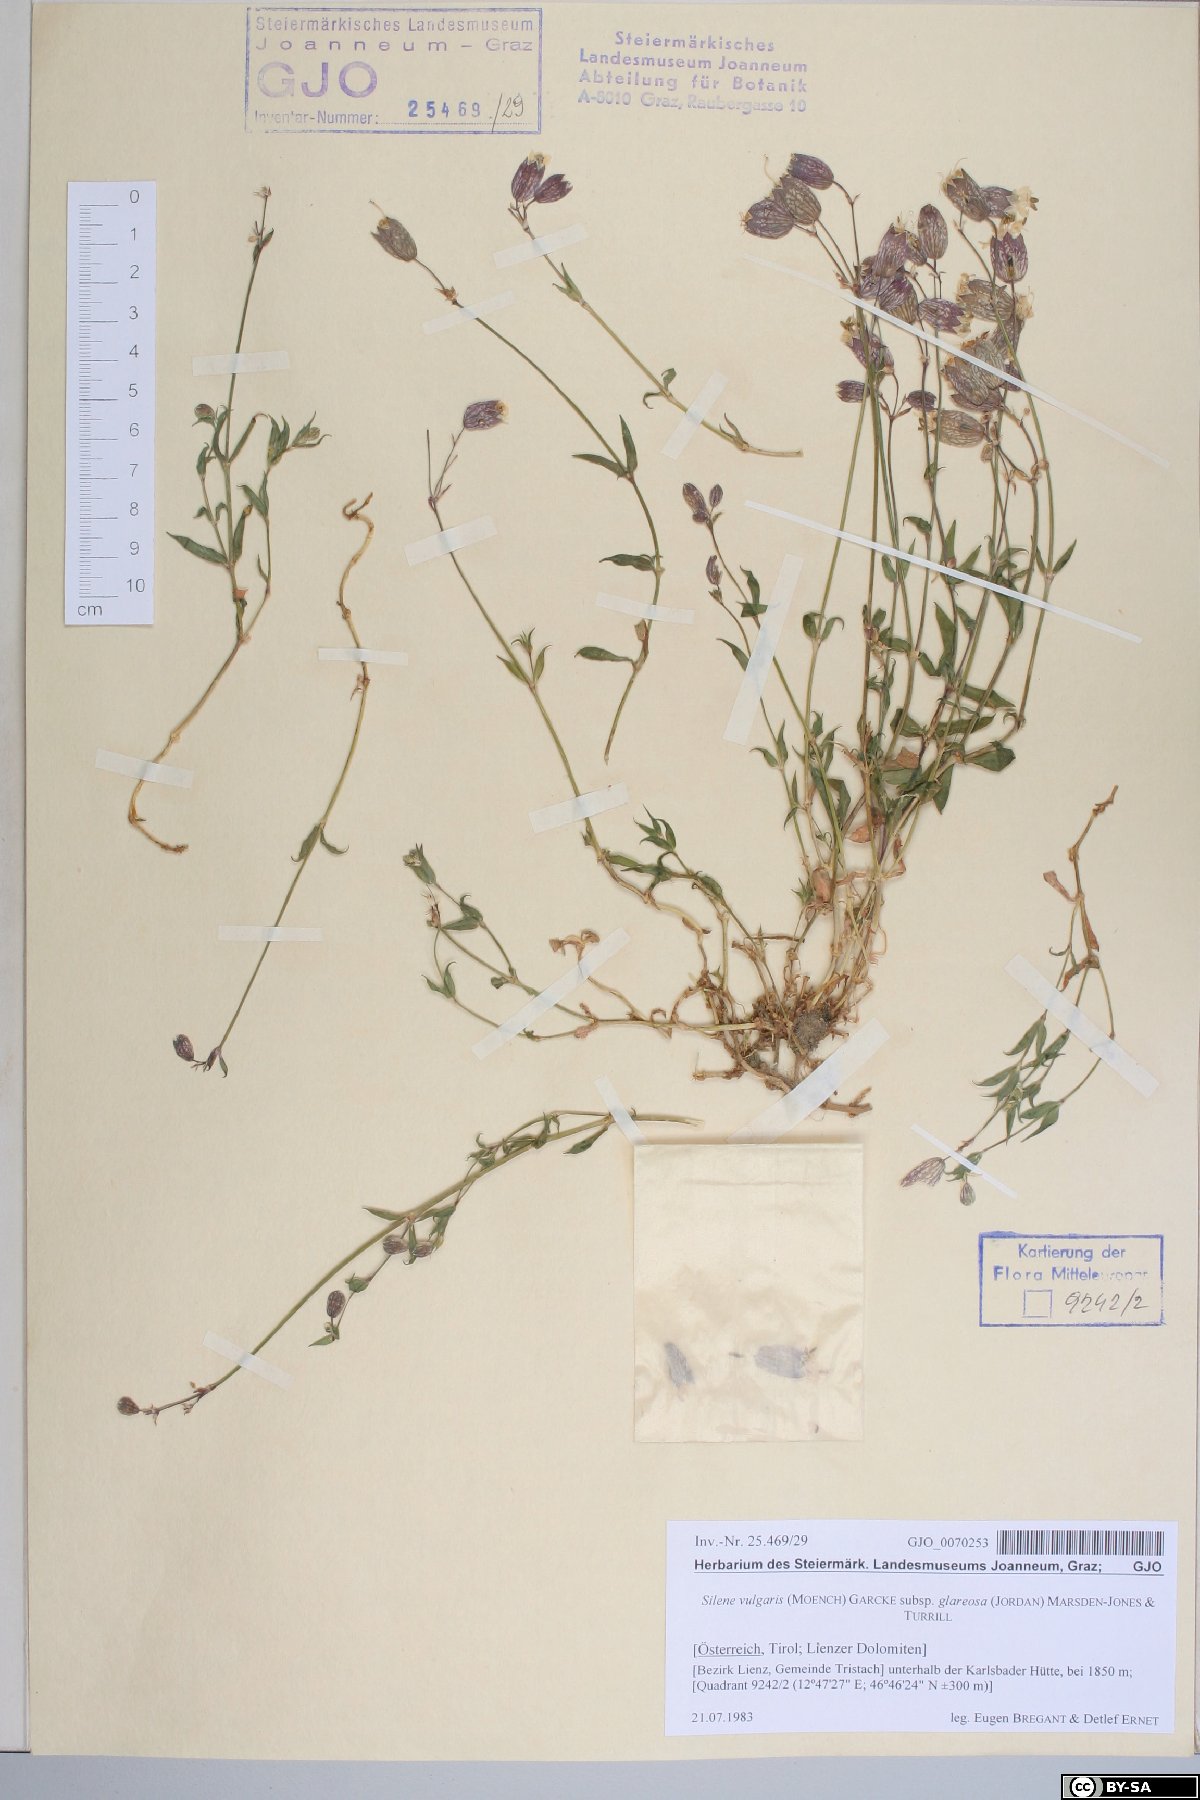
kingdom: Plantae
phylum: Tracheophyta
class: Magnoliopsida
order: Caryophyllales
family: Caryophyllaceae
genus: Silene
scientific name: Silene glareosa
